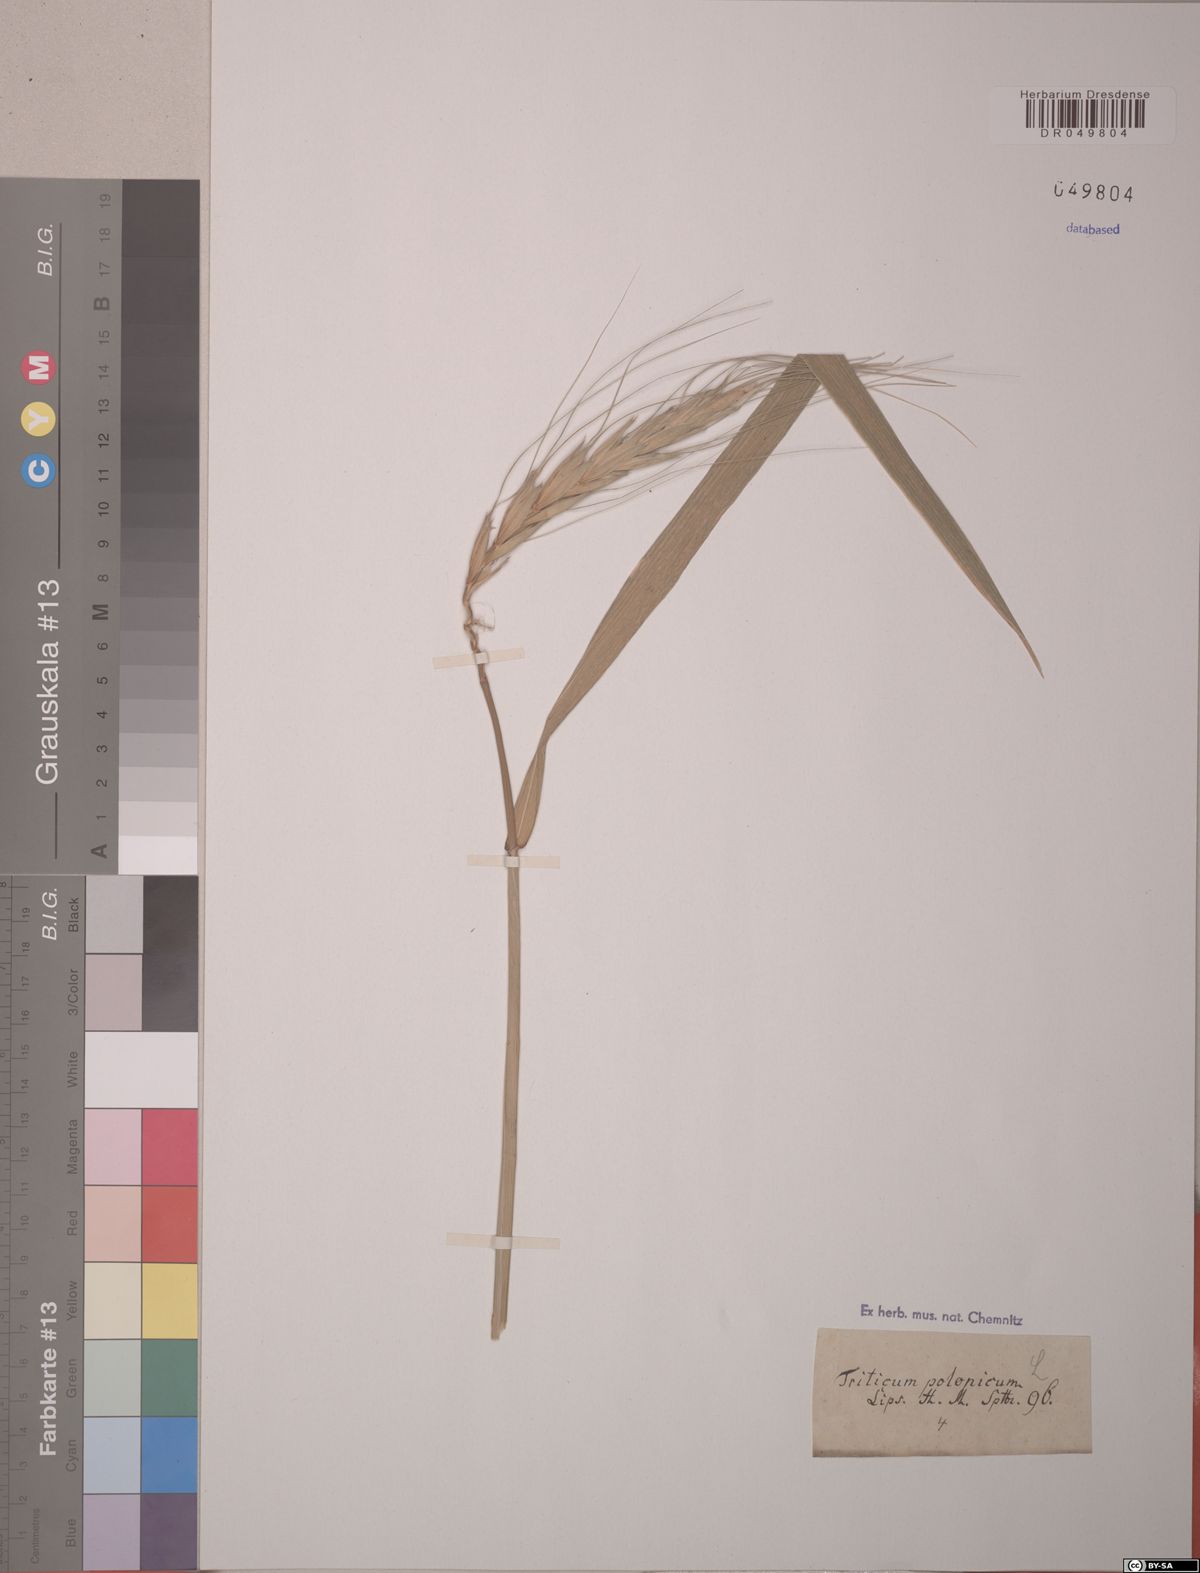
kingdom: Plantae
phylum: Tracheophyta
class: Liliopsida
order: Poales
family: Poaceae
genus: Triticum
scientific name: Triticum turgidum
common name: Rivet wheat
